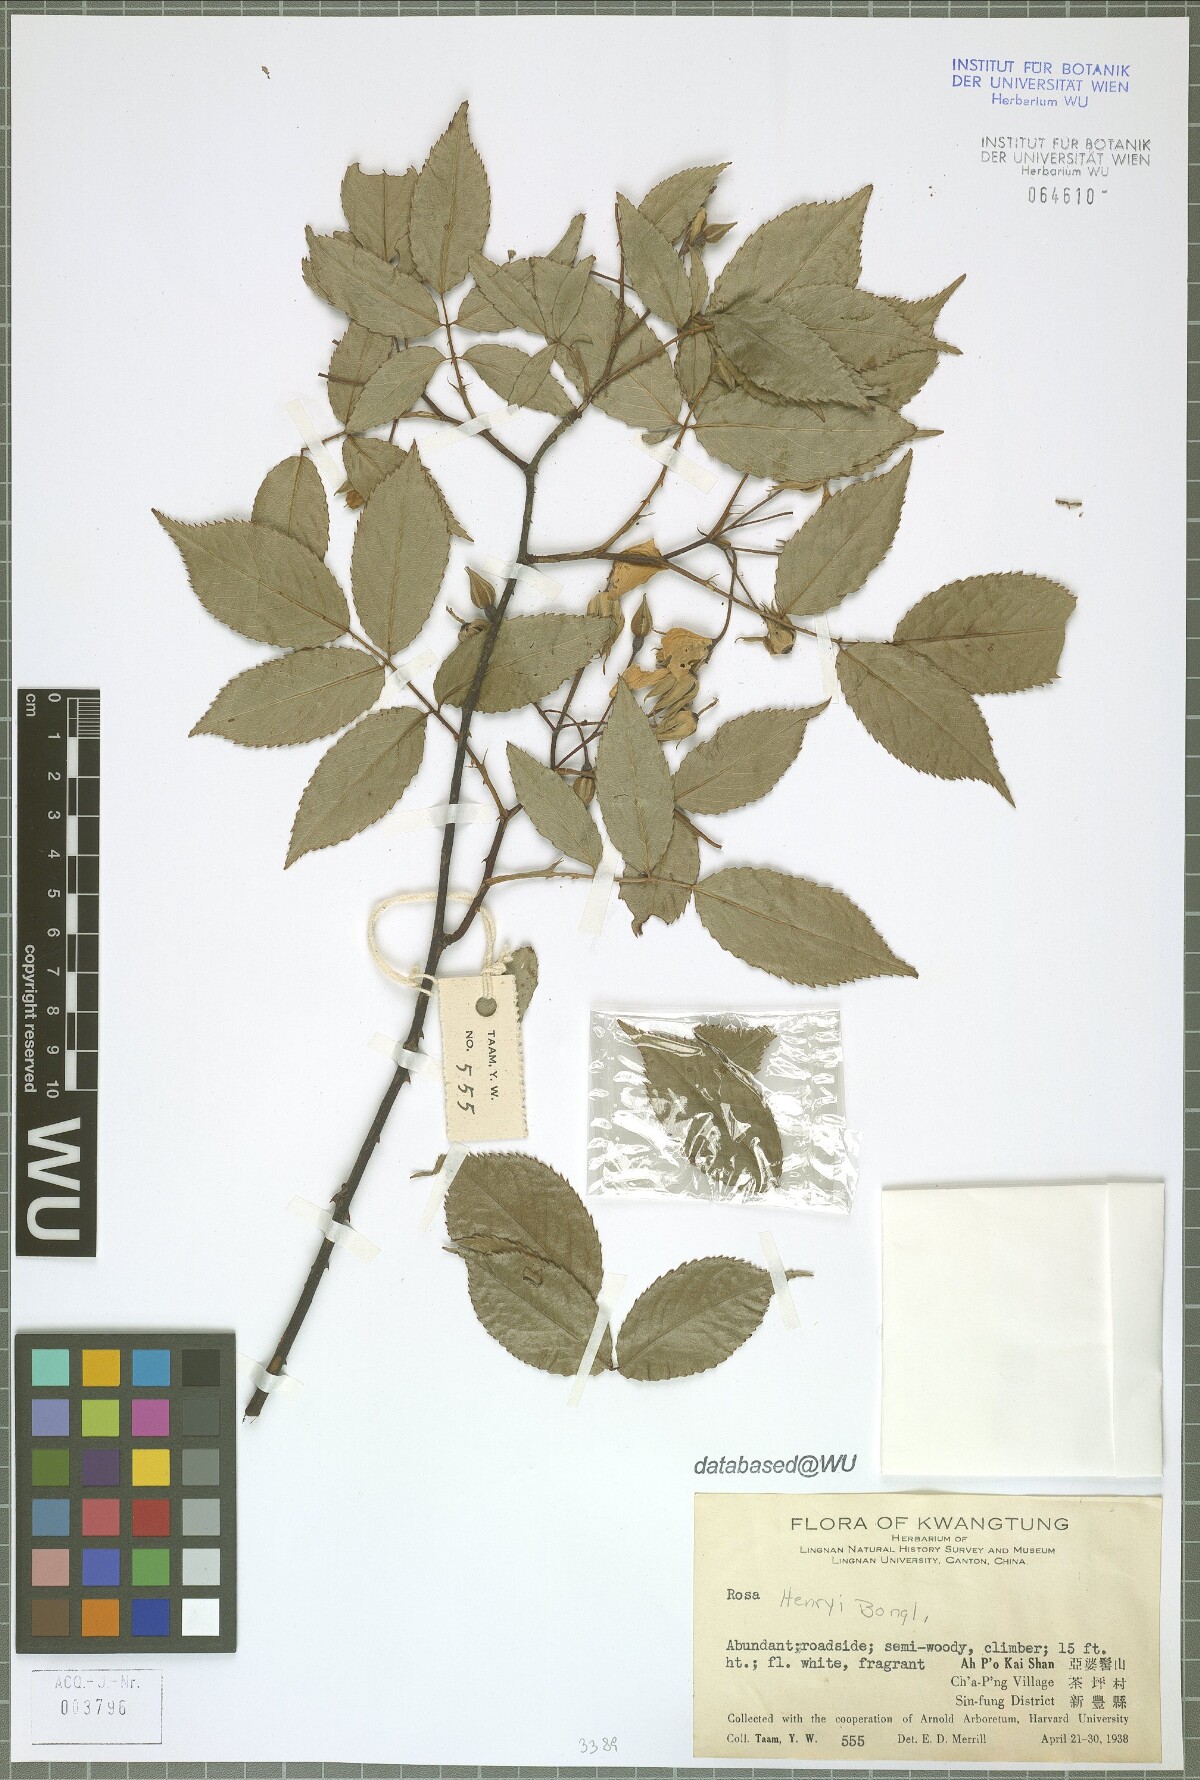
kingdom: Plantae
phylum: Tracheophyta
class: Magnoliopsida
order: Rosales
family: Rosaceae
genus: Rosa
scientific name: Rosa henryi
